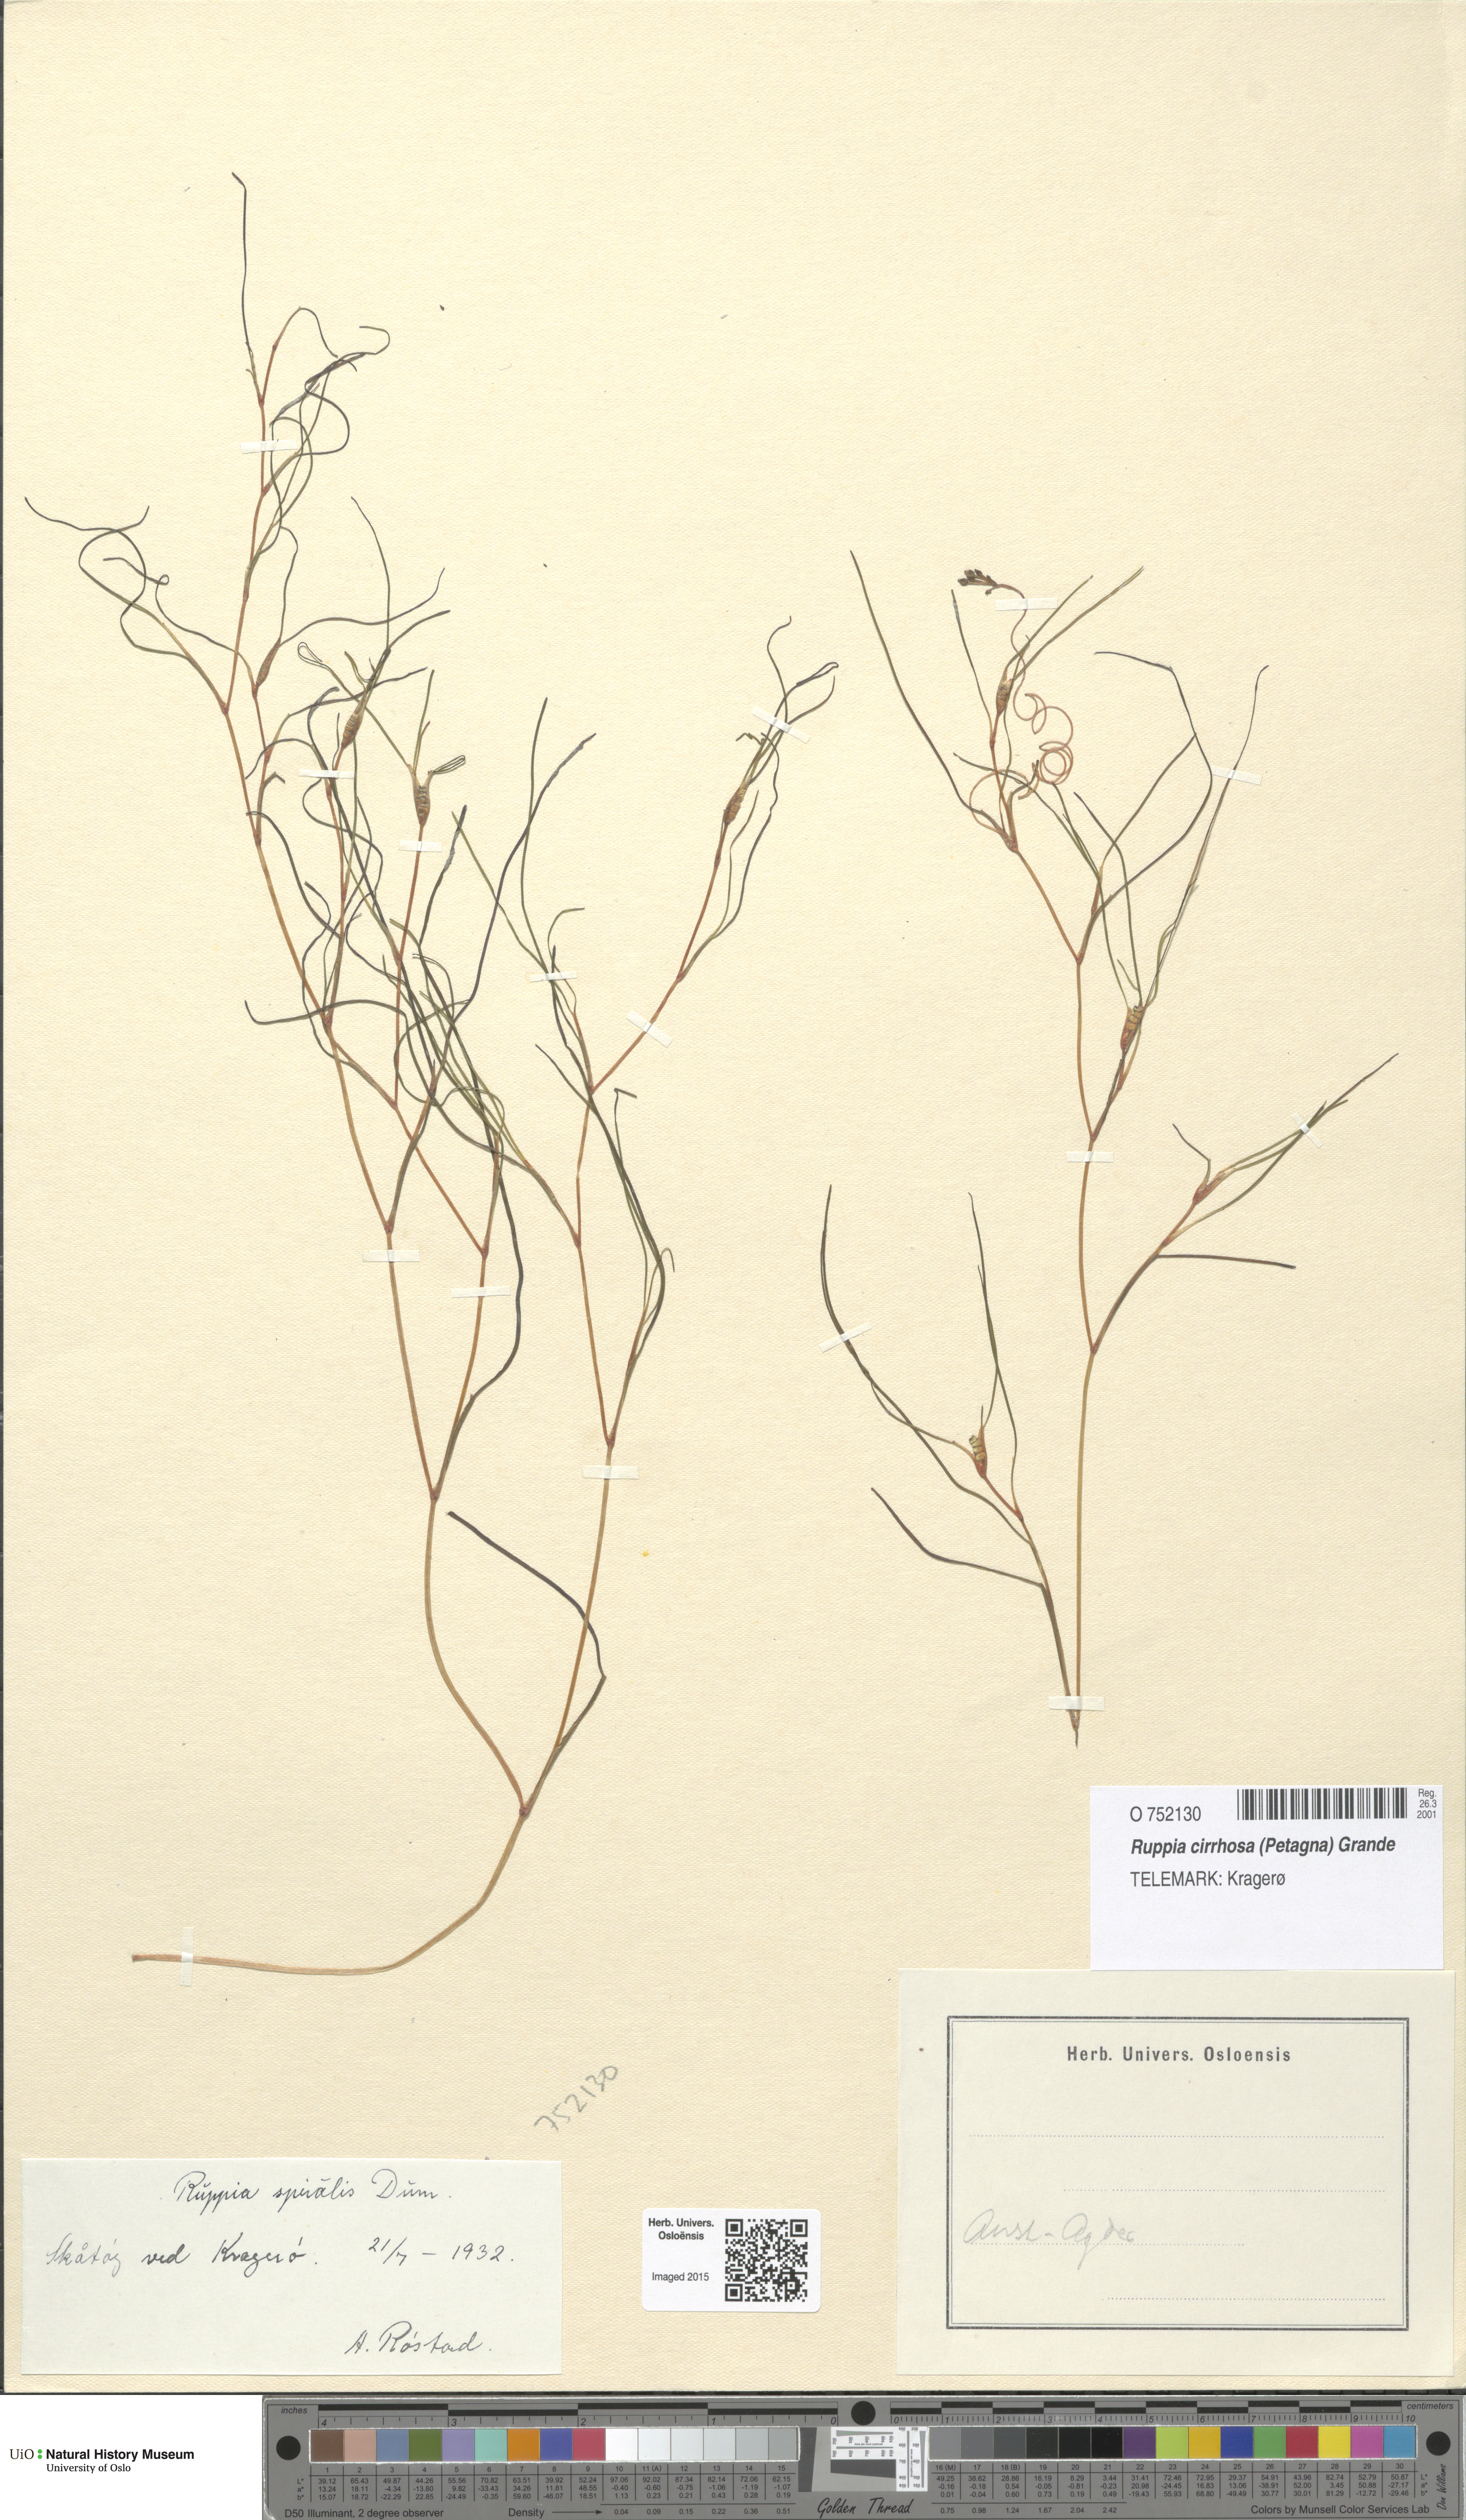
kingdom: Plantae
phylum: Tracheophyta
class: Liliopsida
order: Alismatales
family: Ruppiaceae
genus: Ruppia
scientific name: Ruppia cirrhosa
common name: Spiral tasselweed
